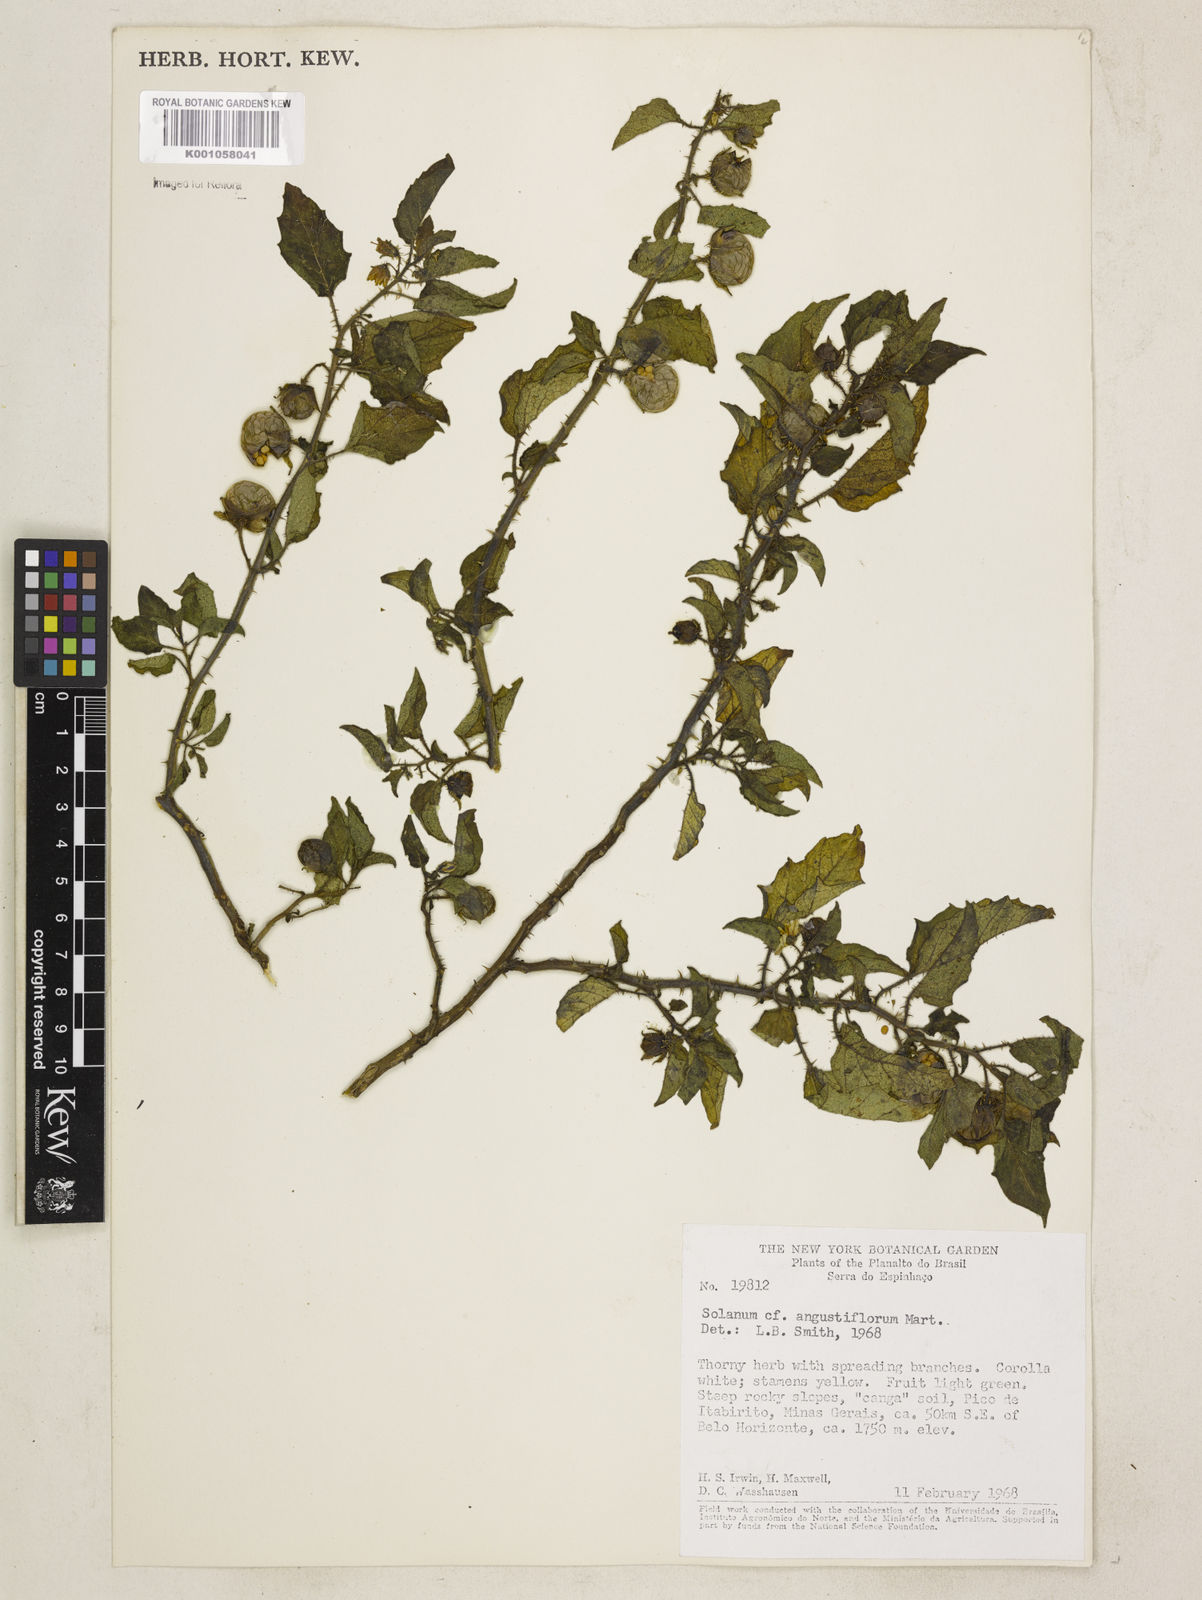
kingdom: Plantae
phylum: Tracheophyta
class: Magnoliopsida
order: Solanales
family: Solanaceae
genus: Solanum
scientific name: Solanum
